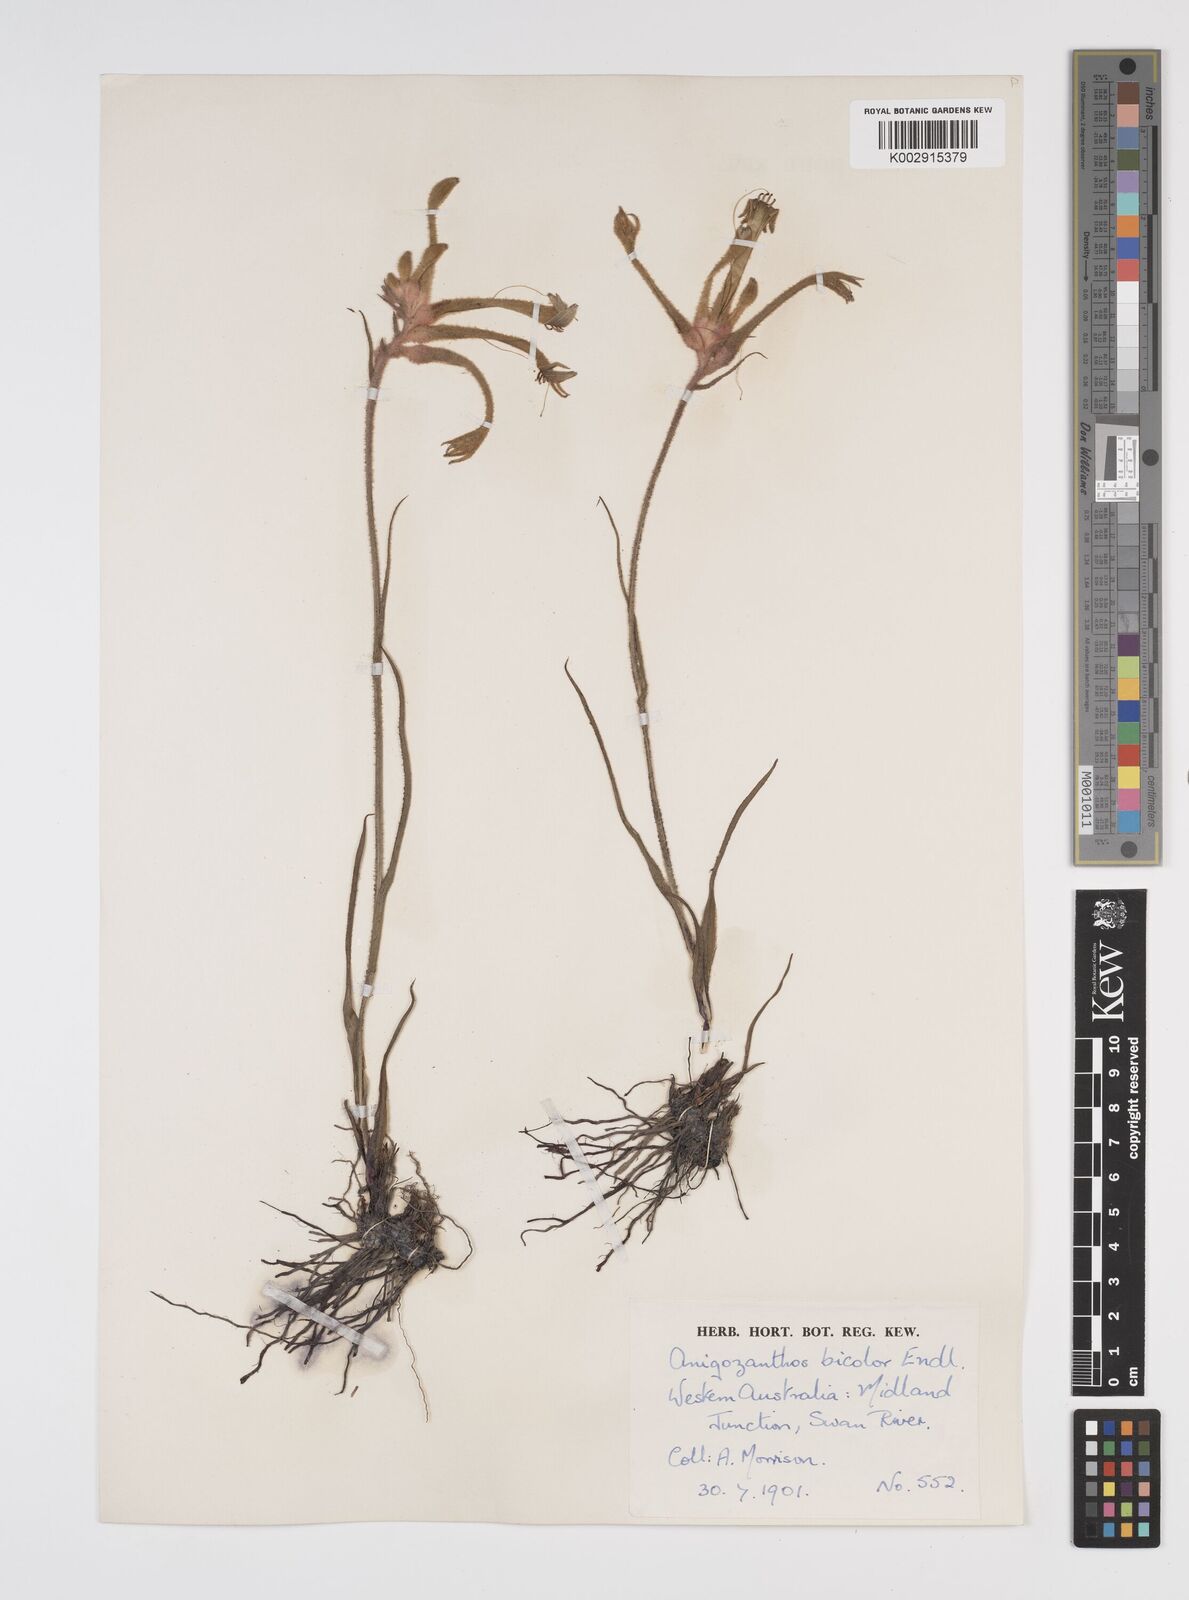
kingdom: Plantae
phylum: Tracheophyta
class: Liliopsida
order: Commelinales
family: Haemodoraceae
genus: Anigozanthos
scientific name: Anigozanthos bicolor
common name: Little kangaroo-paw
